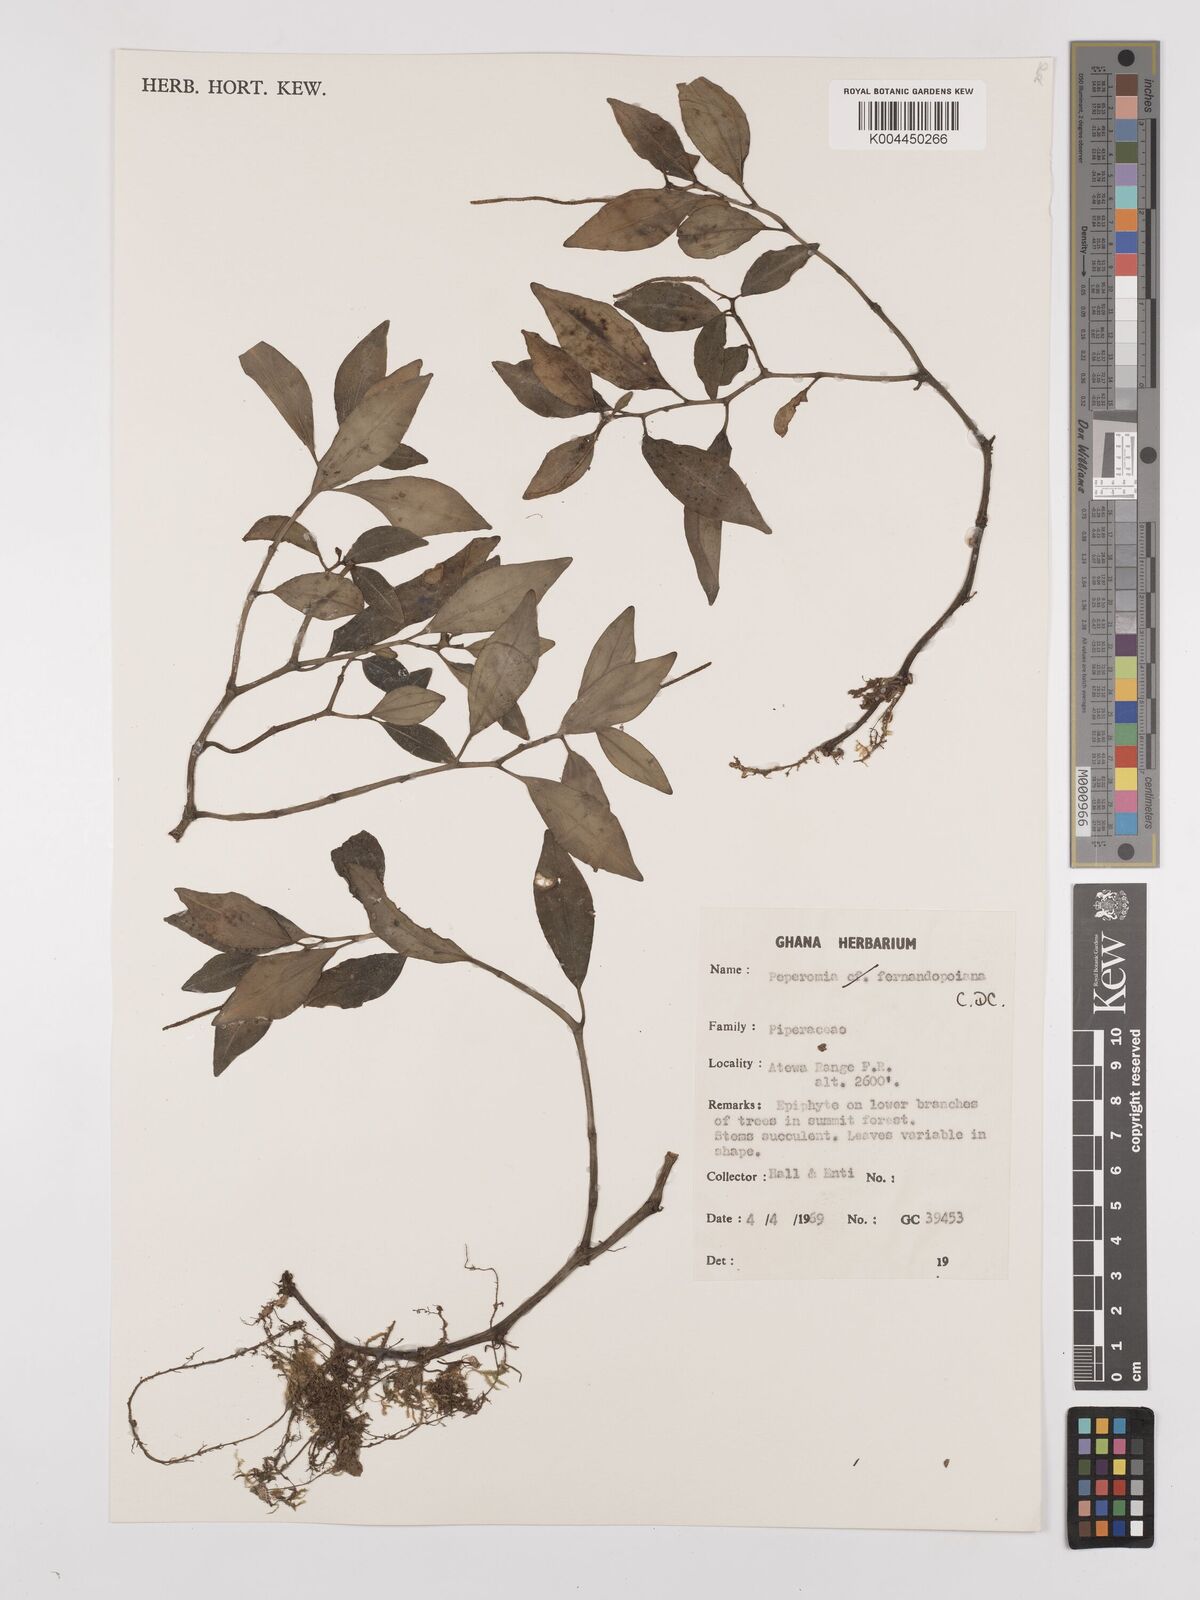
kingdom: Plantae
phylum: Tracheophyta
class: Magnoliopsida
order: Piperales
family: Piperaceae
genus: Peperomia
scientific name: Peperomia fernandeziana
